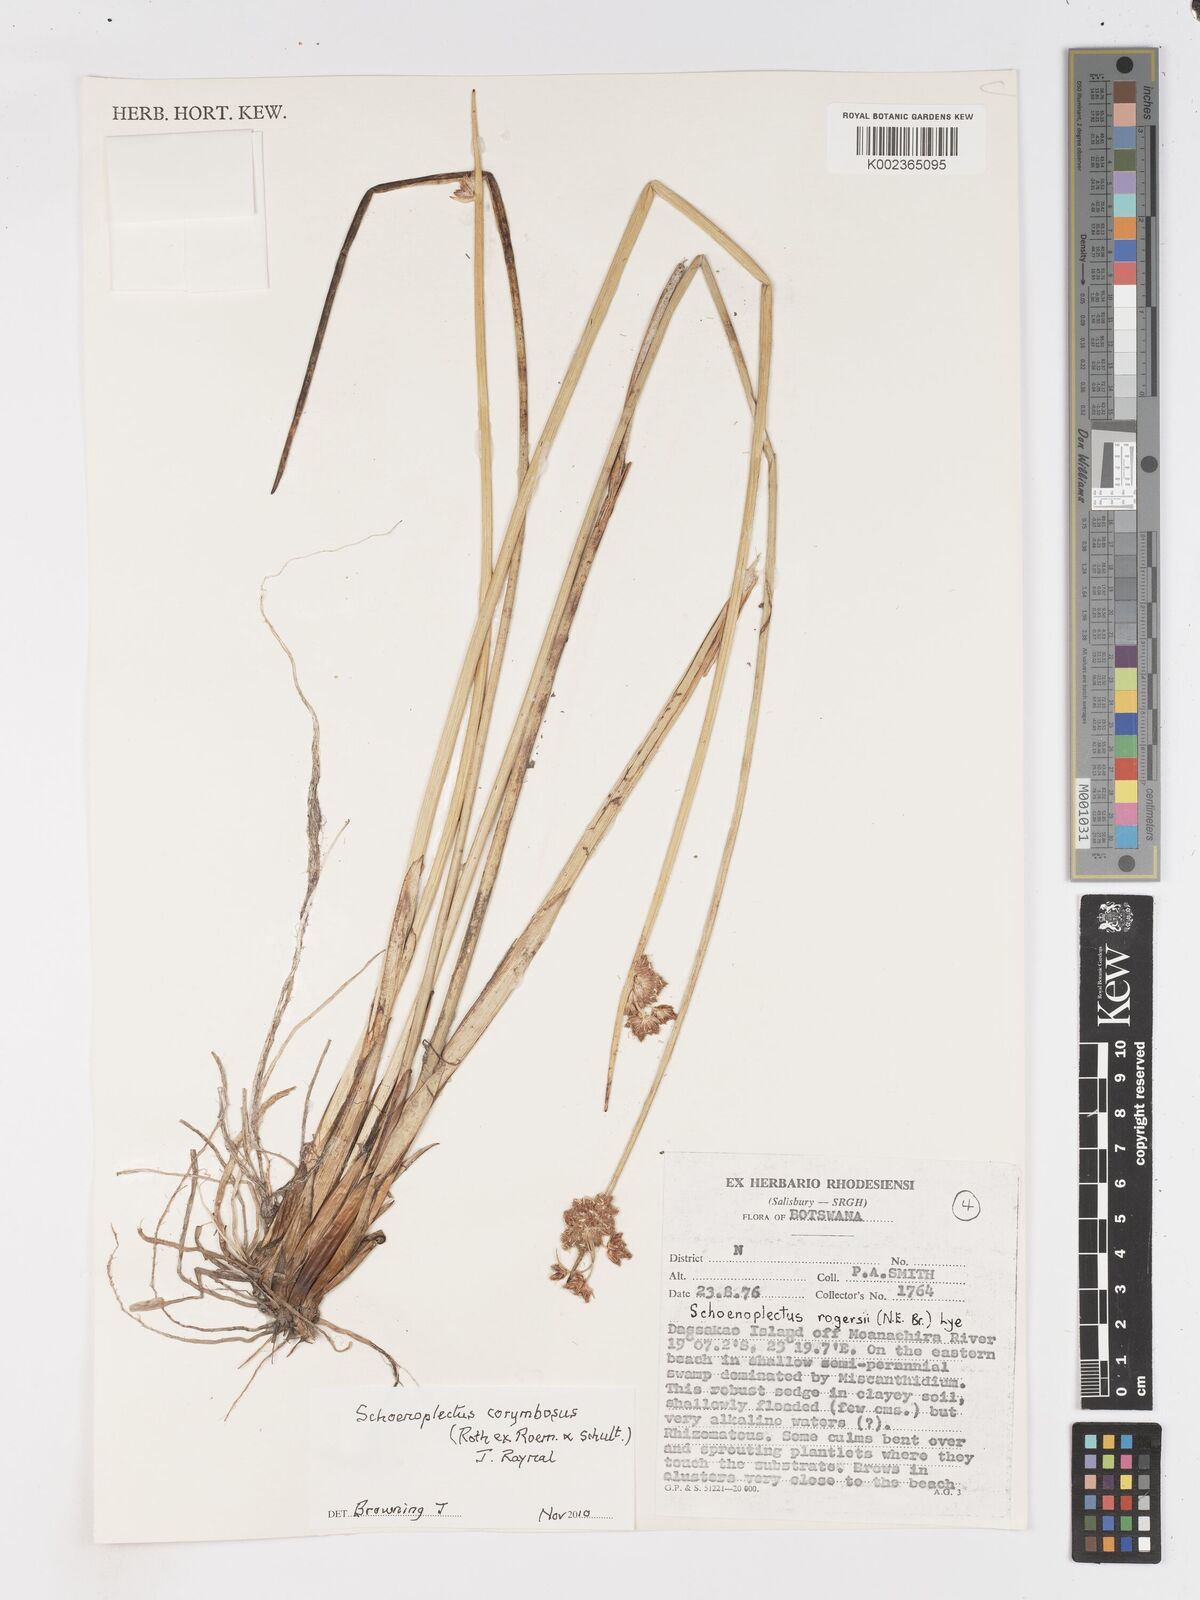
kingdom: Plantae
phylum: Tracheophyta
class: Liliopsida
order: Poales
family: Cyperaceae
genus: Schoenoplectiella
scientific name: Schoenoplectiella corymbosa
